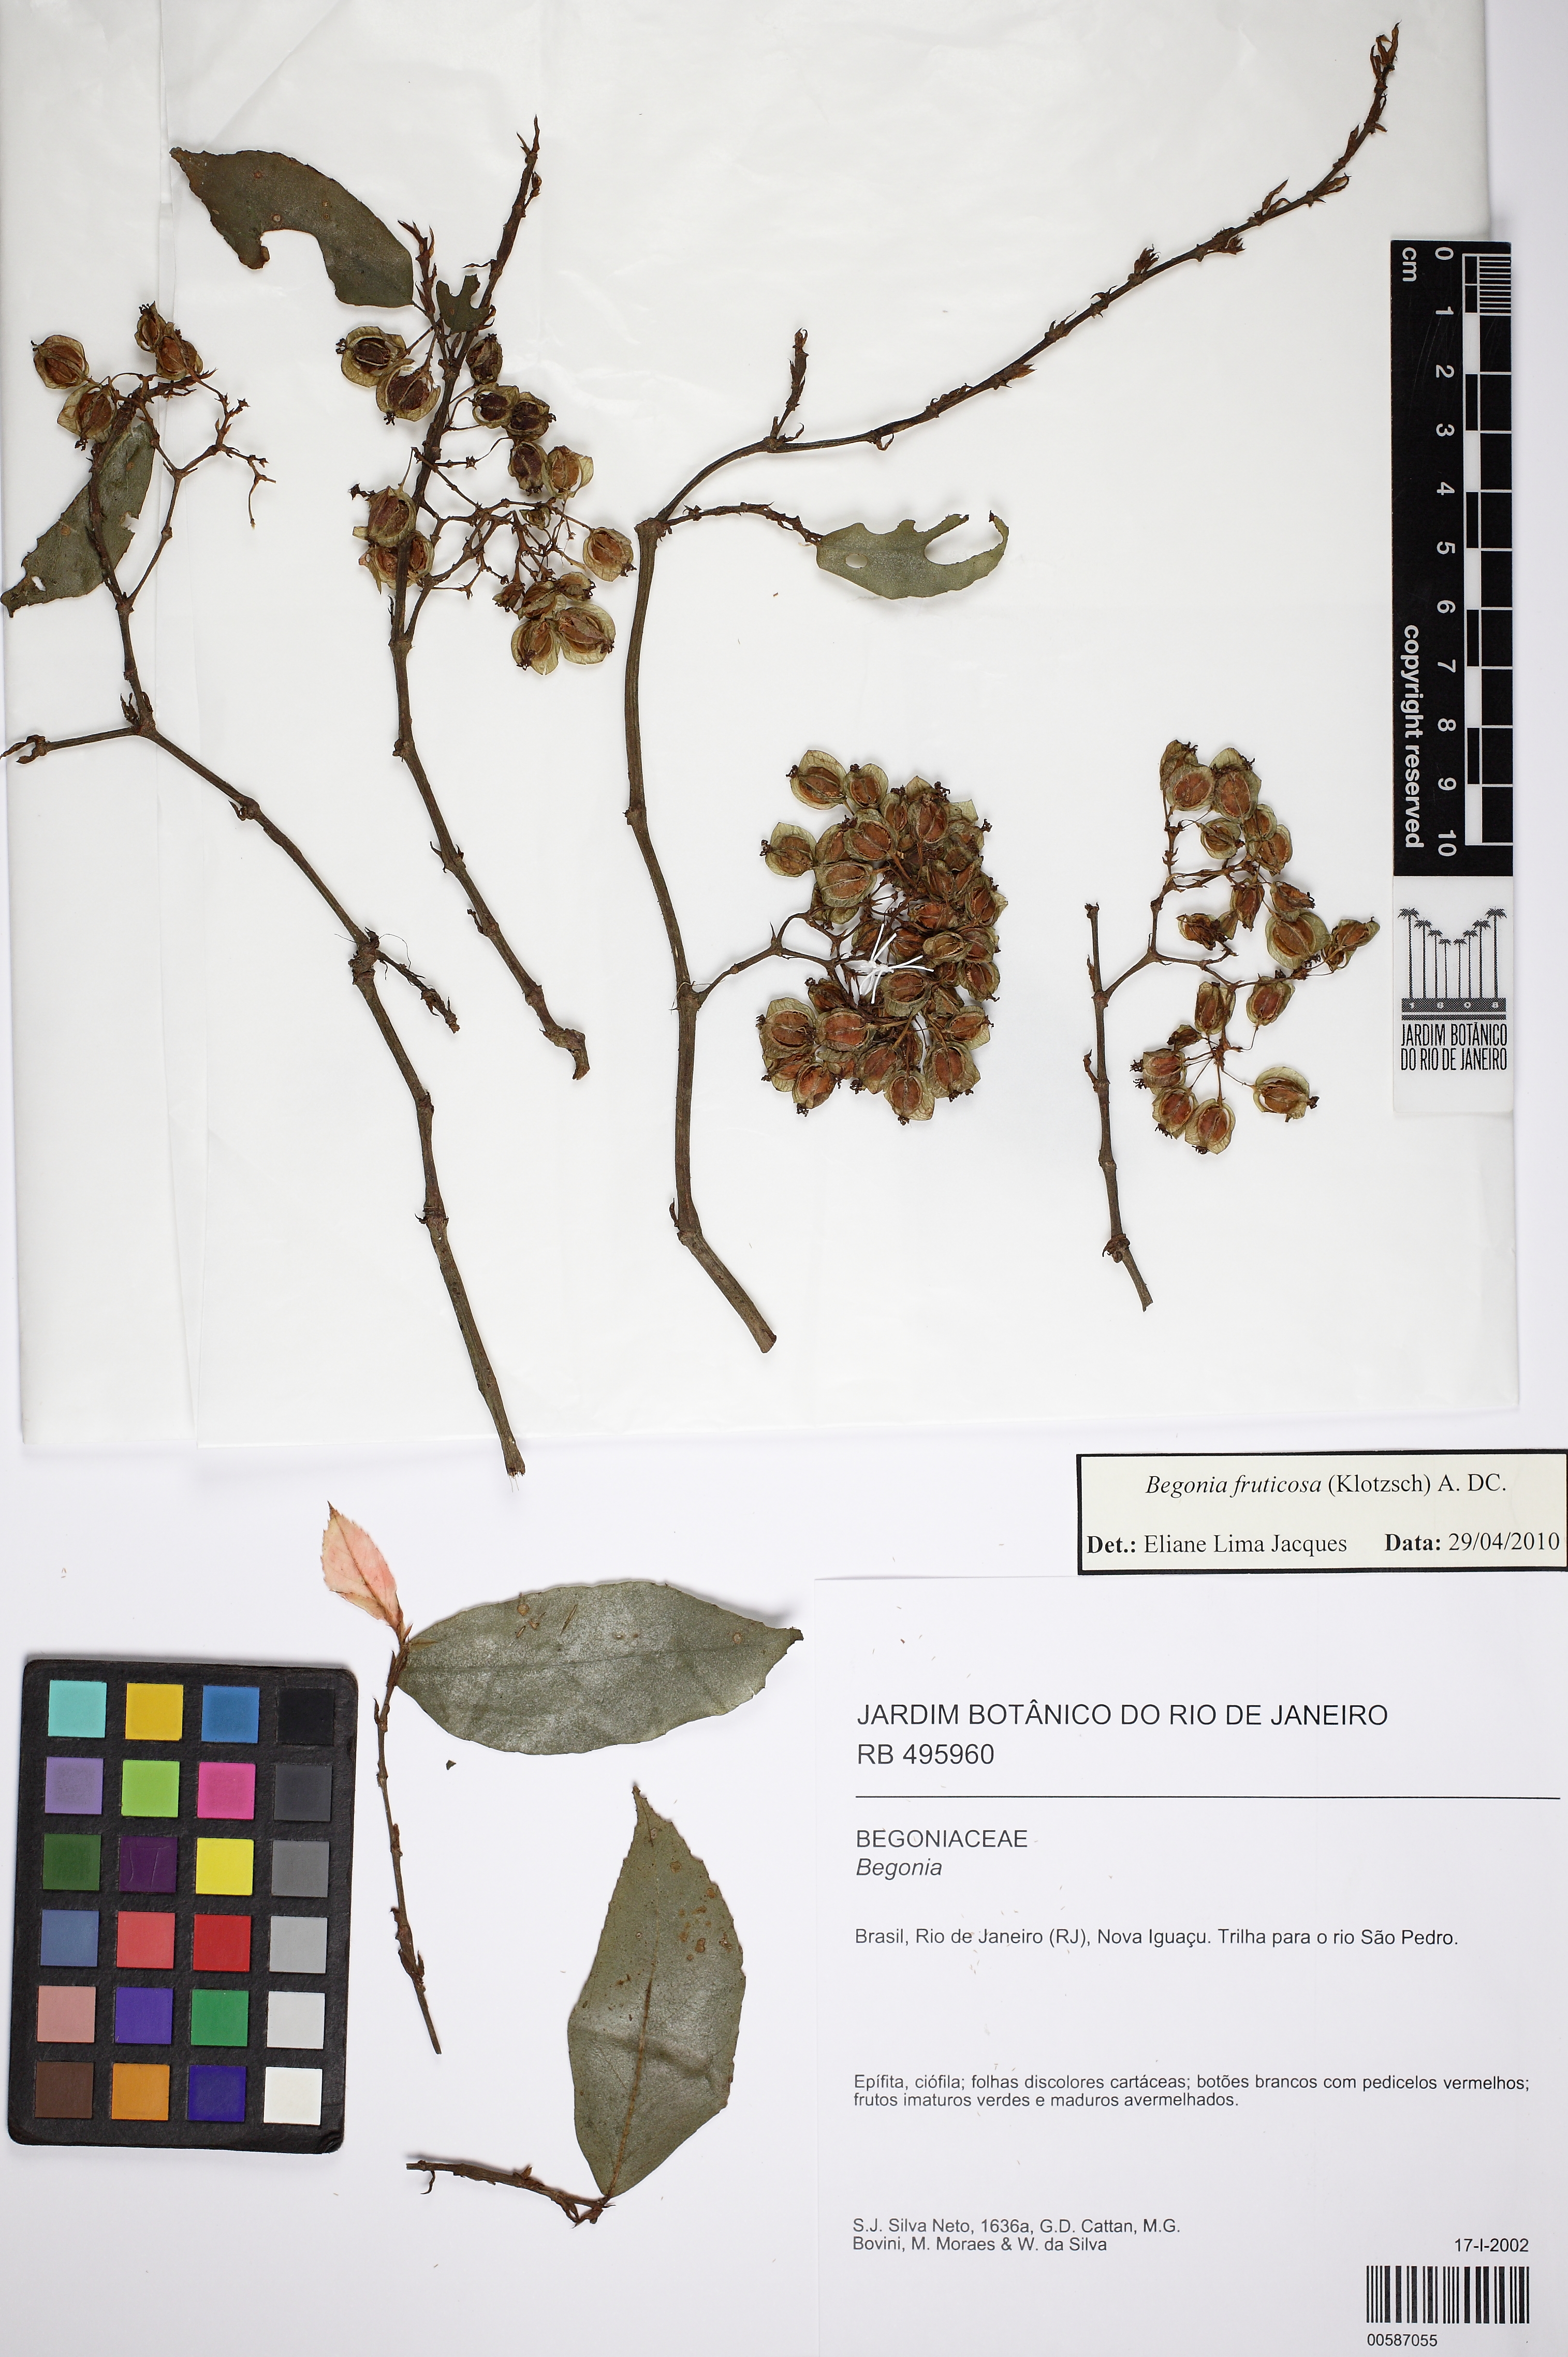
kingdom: Plantae
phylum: Tracheophyta
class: Magnoliopsida
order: Cucurbitales
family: Begoniaceae
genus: Begonia
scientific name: Begonia fruticosa
